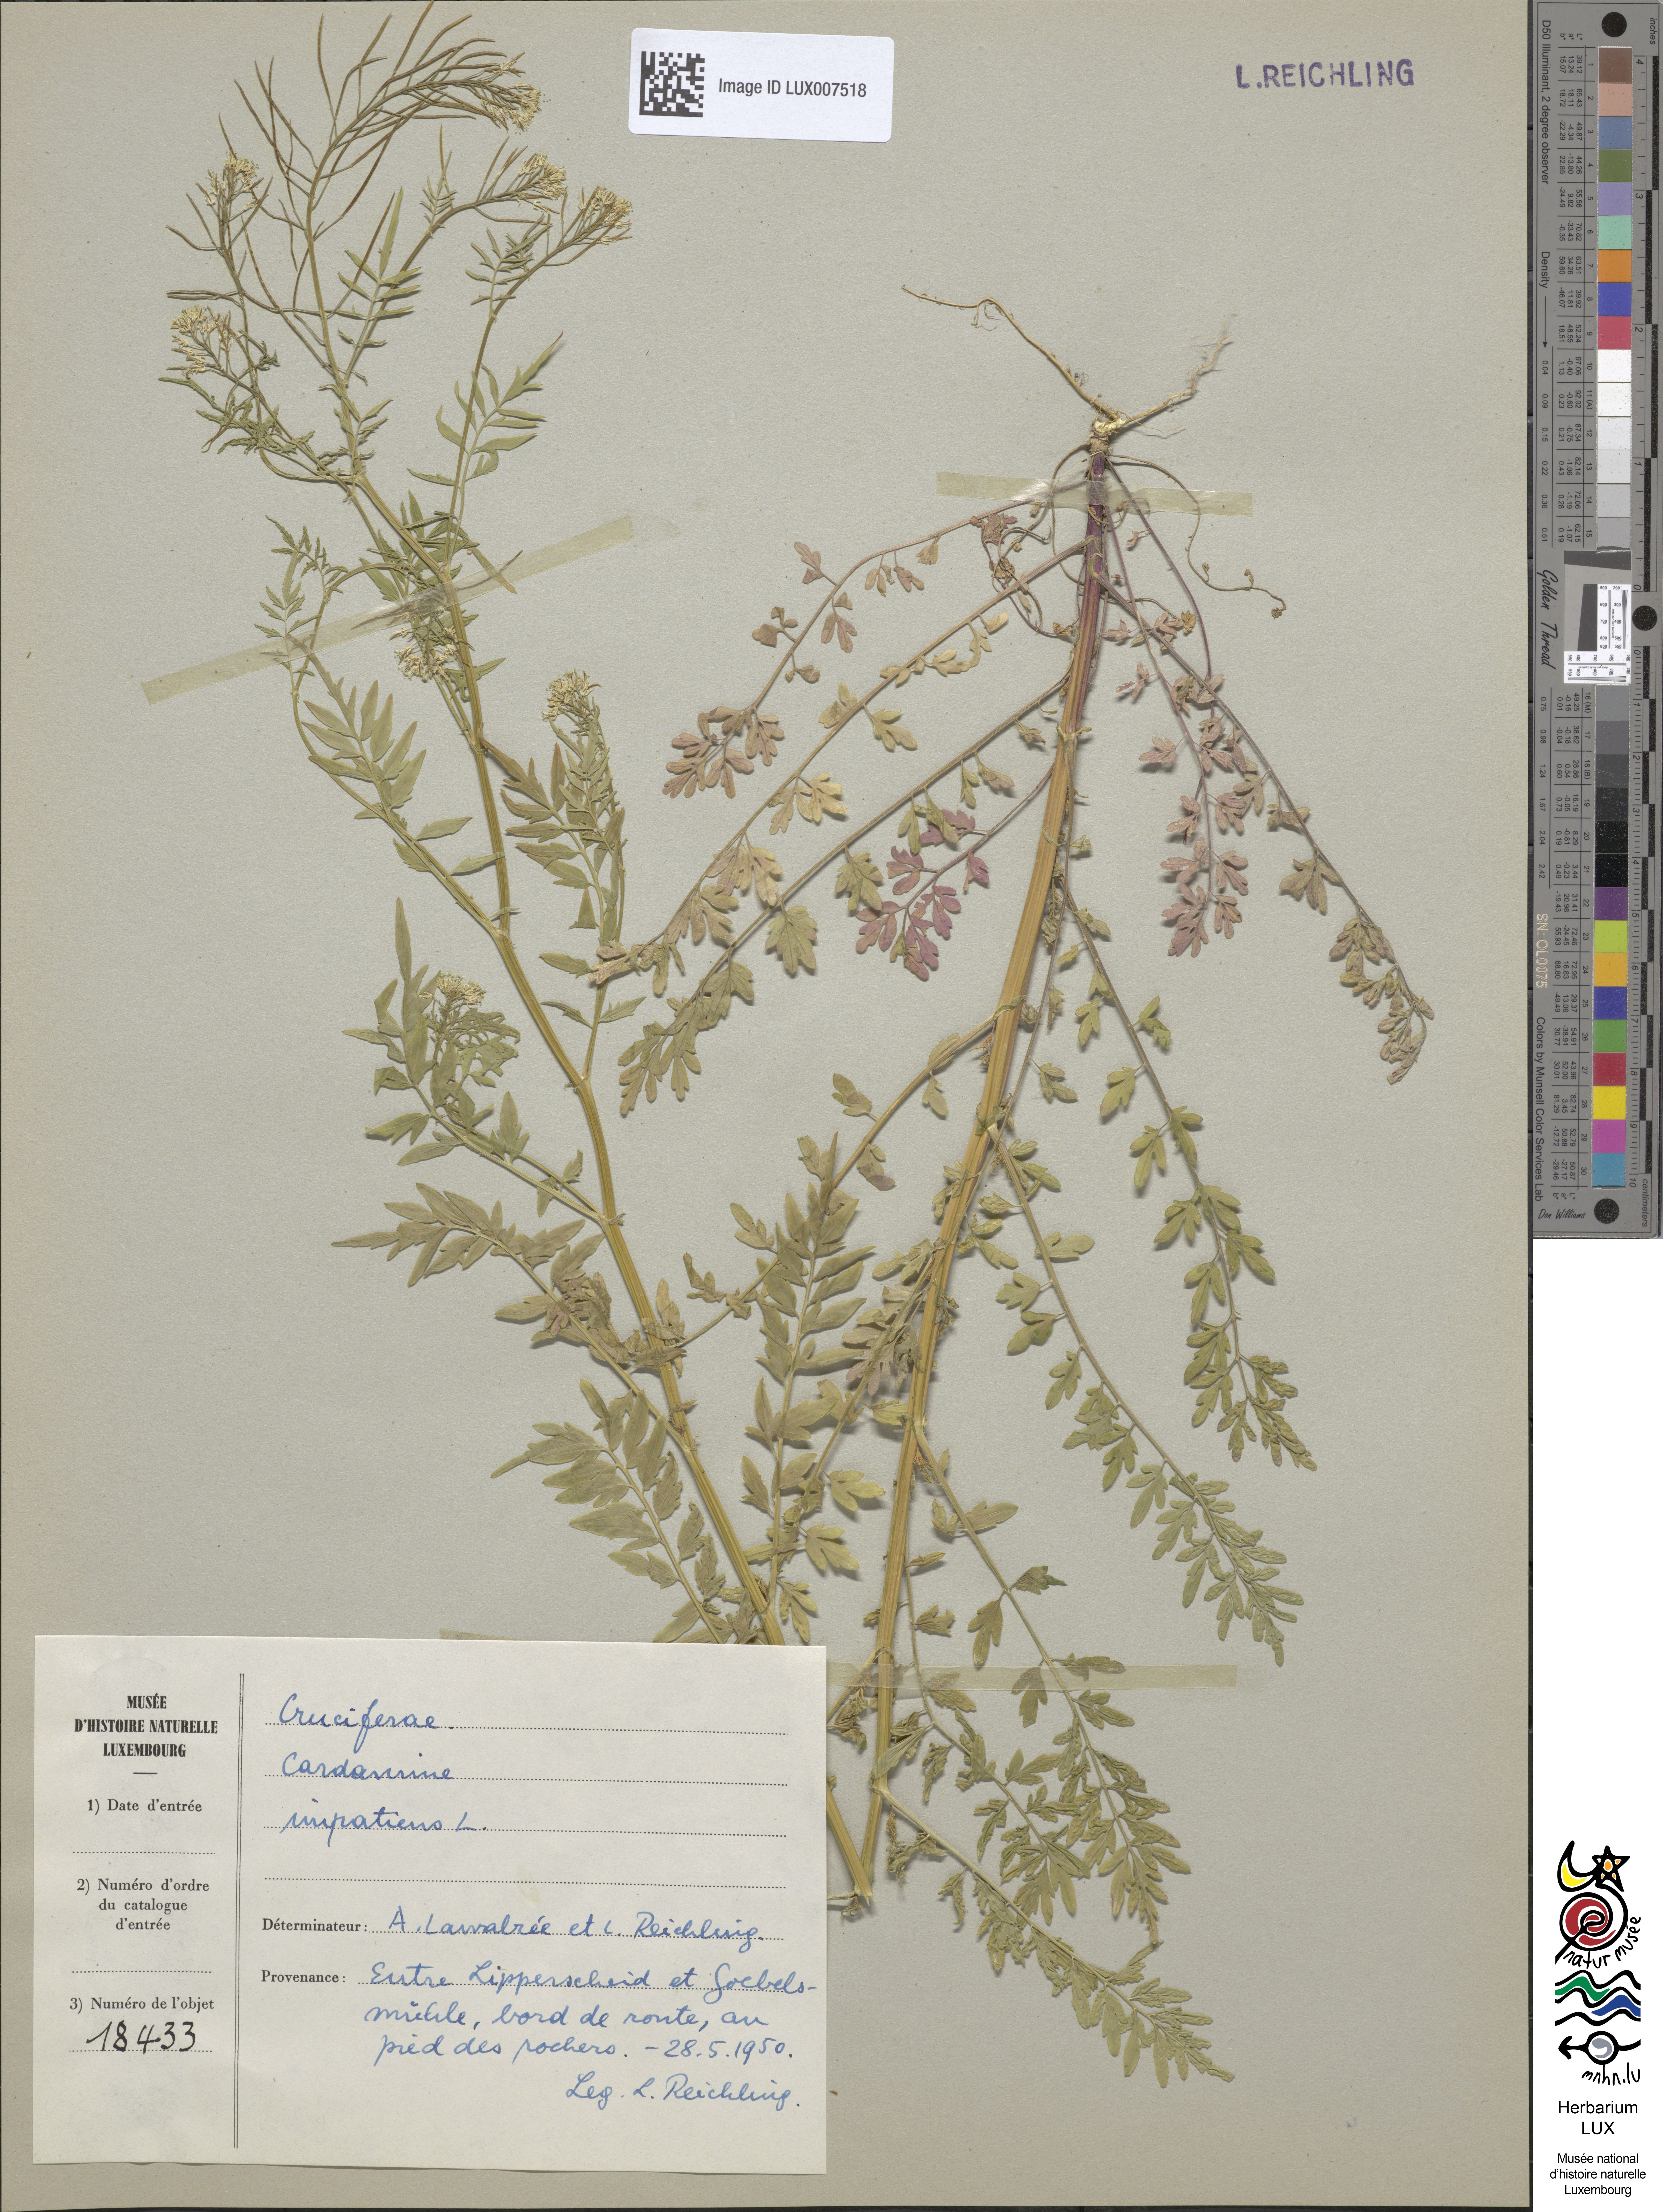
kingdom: Plantae
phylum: Tracheophyta
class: Magnoliopsida
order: Brassicales
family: Brassicaceae
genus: Cardamine
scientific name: Cardamine impatiens
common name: Narrow-leaved bitter-cress
